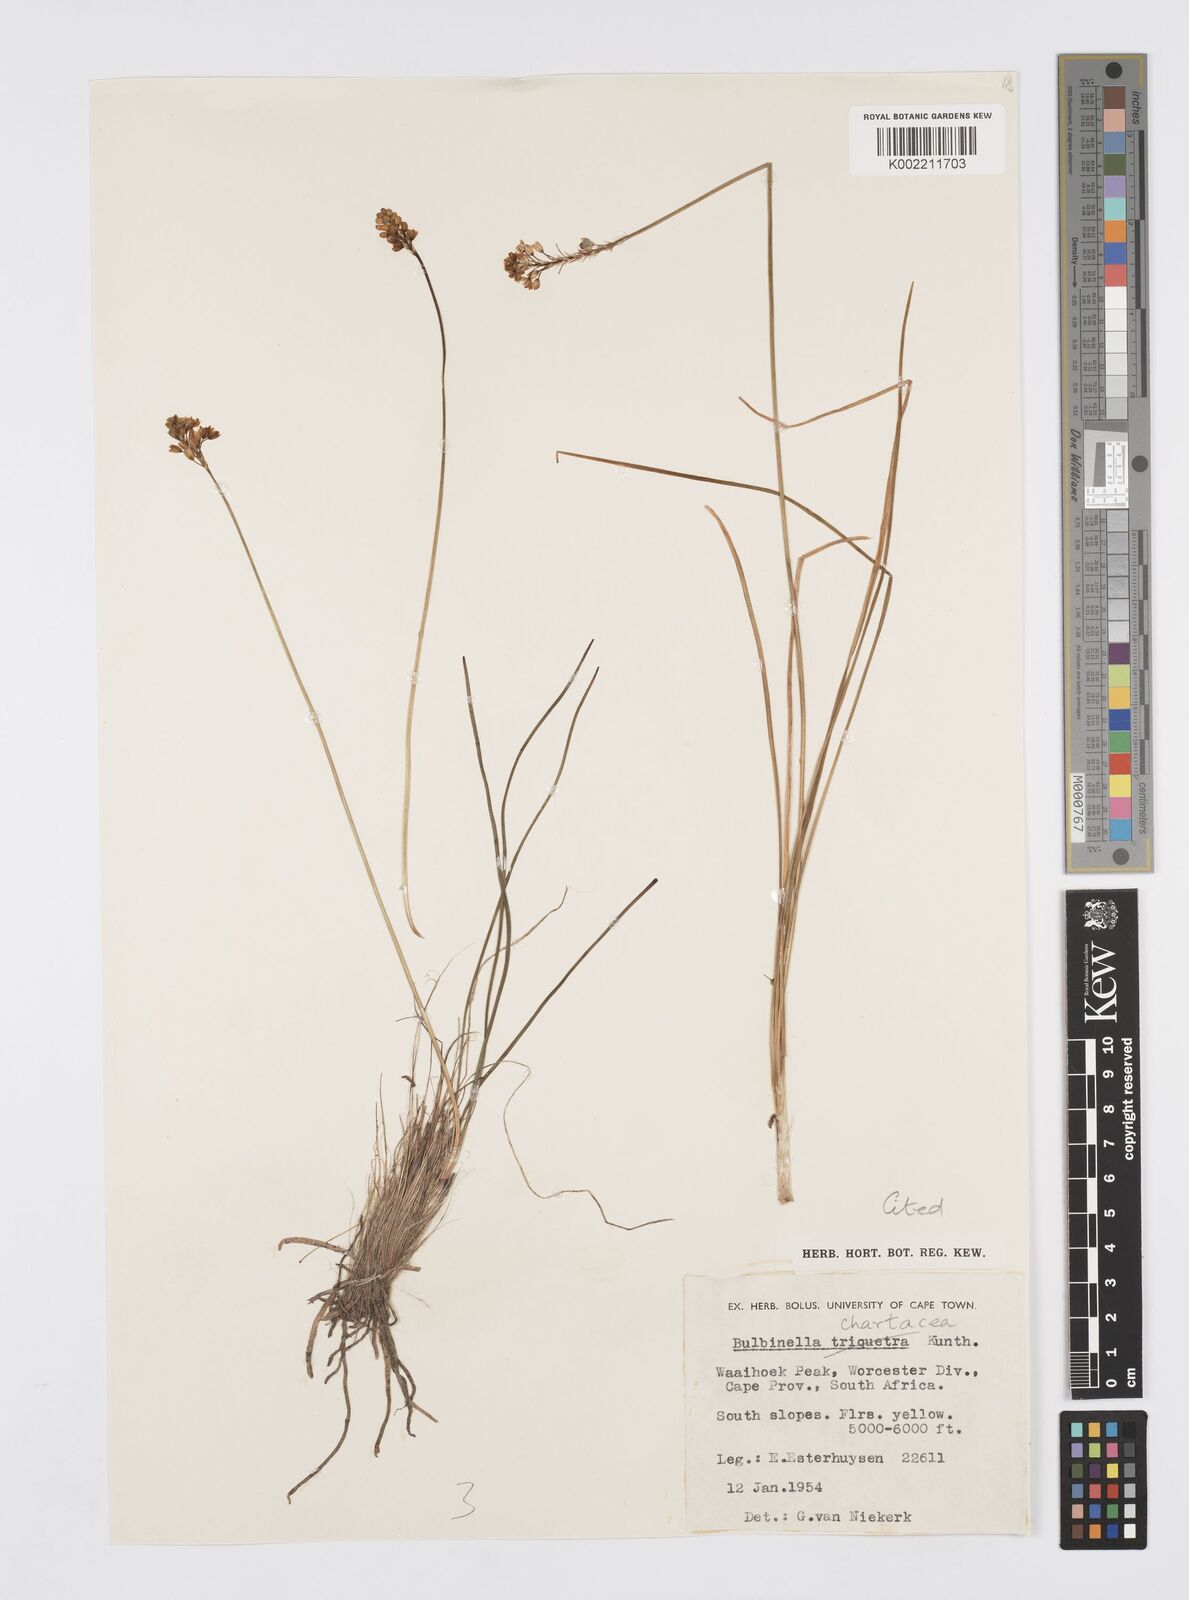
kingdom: Plantae
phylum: Tracheophyta
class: Liliopsida
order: Asparagales
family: Asphodelaceae
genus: Bulbinella
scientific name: Bulbinella chartacea
